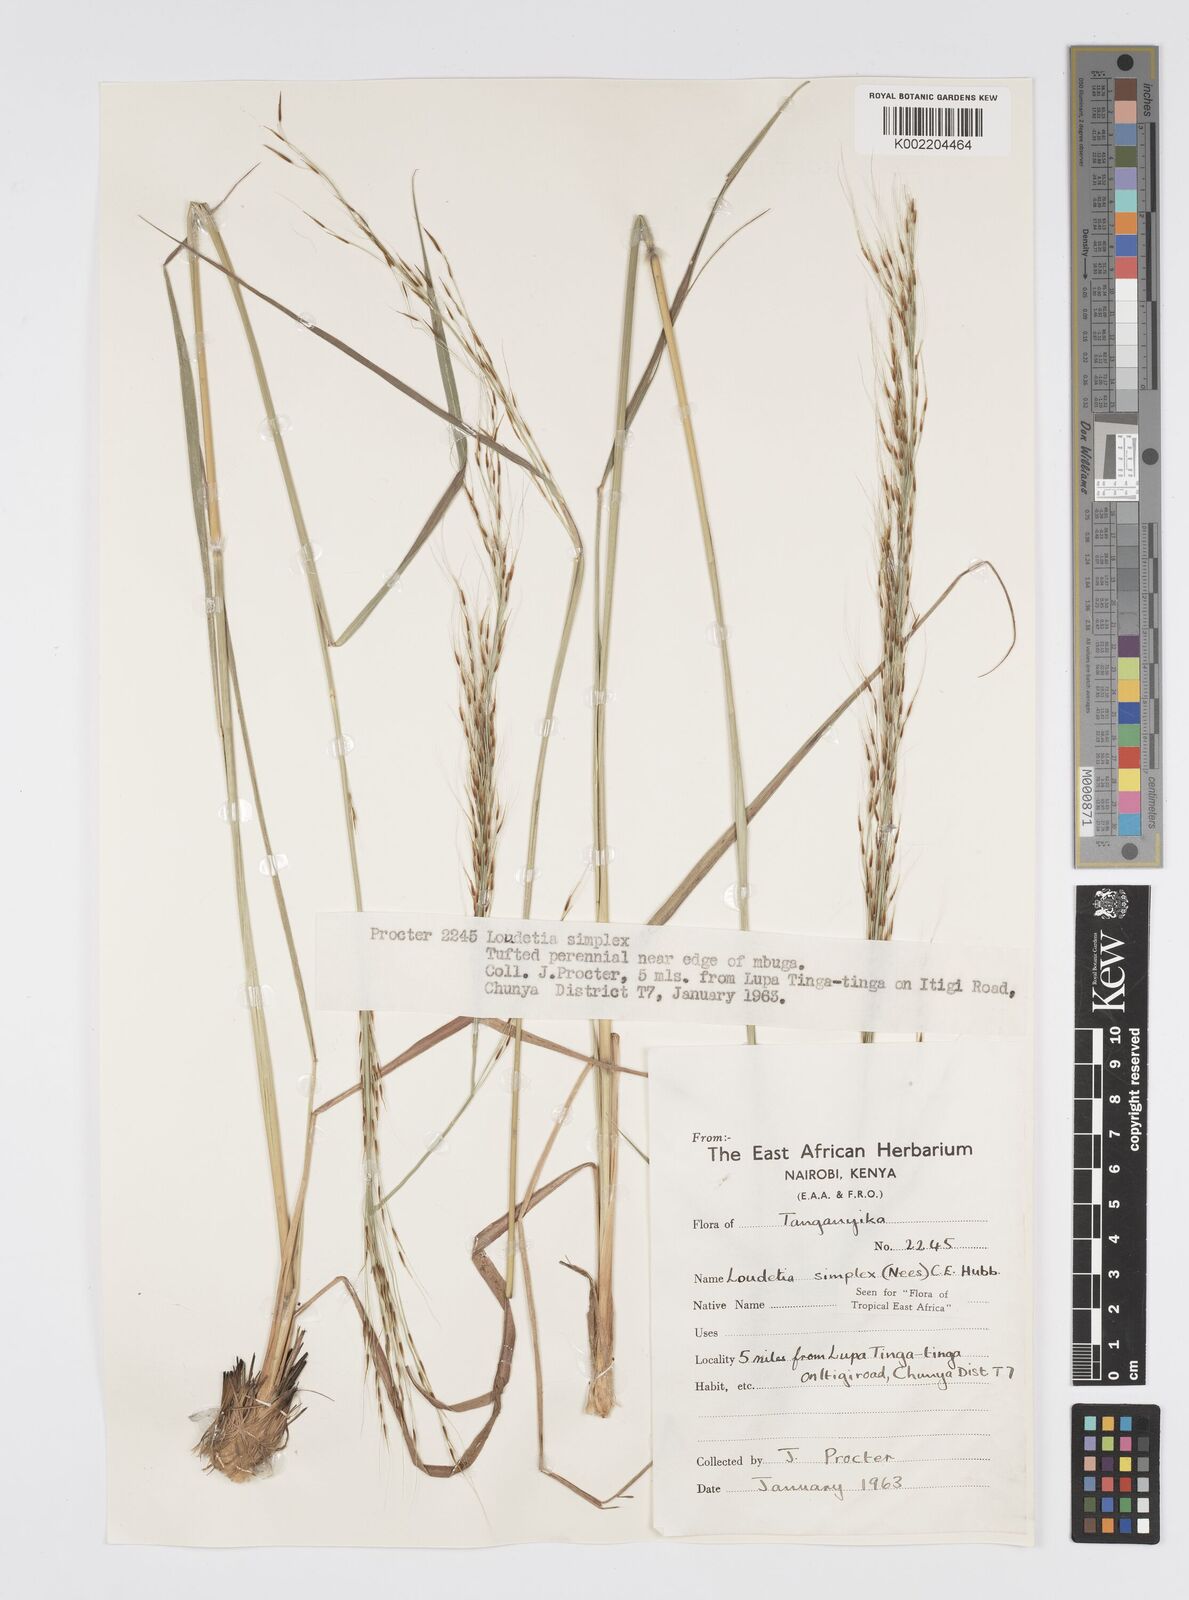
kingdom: Plantae
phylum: Tracheophyta
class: Liliopsida
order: Poales
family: Poaceae
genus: Loudetia
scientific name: Loudetia simplex
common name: Common russet grass
